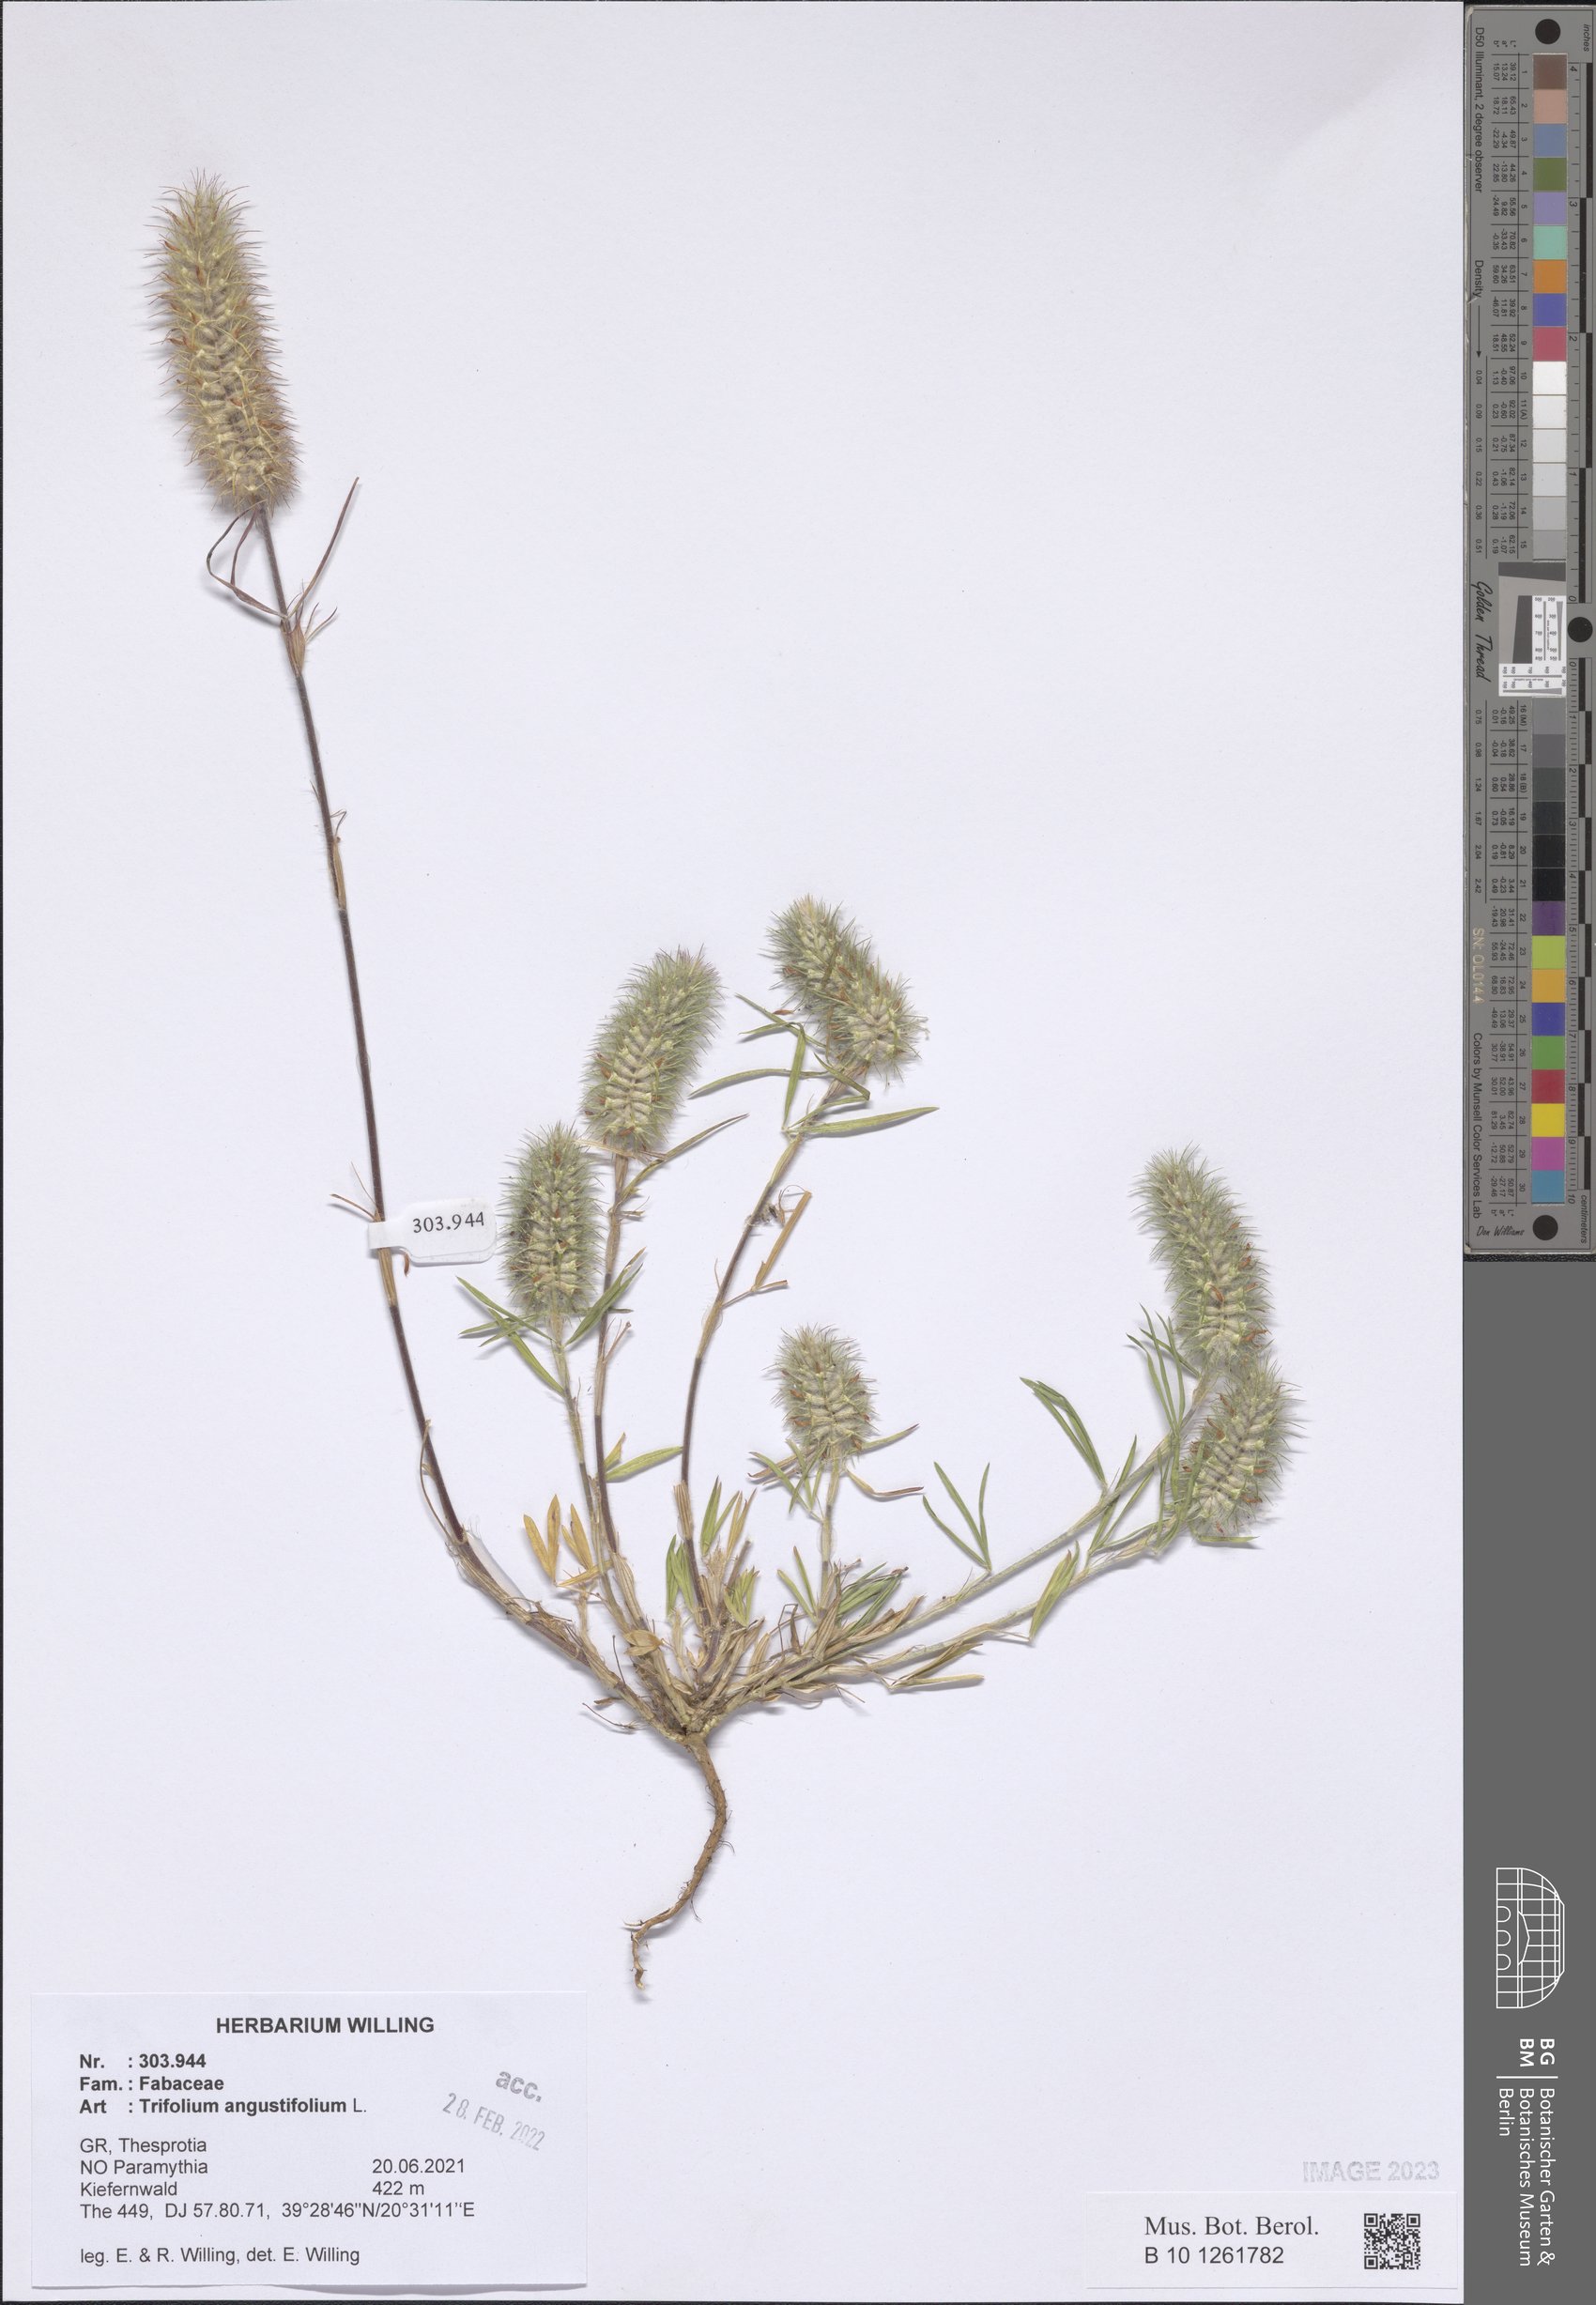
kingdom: Plantae
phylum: Tracheophyta
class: Magnoliopsida
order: Fabales
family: Fabaceae
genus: Trifolium
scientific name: Trifolium angustifolium
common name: Narrow clover
